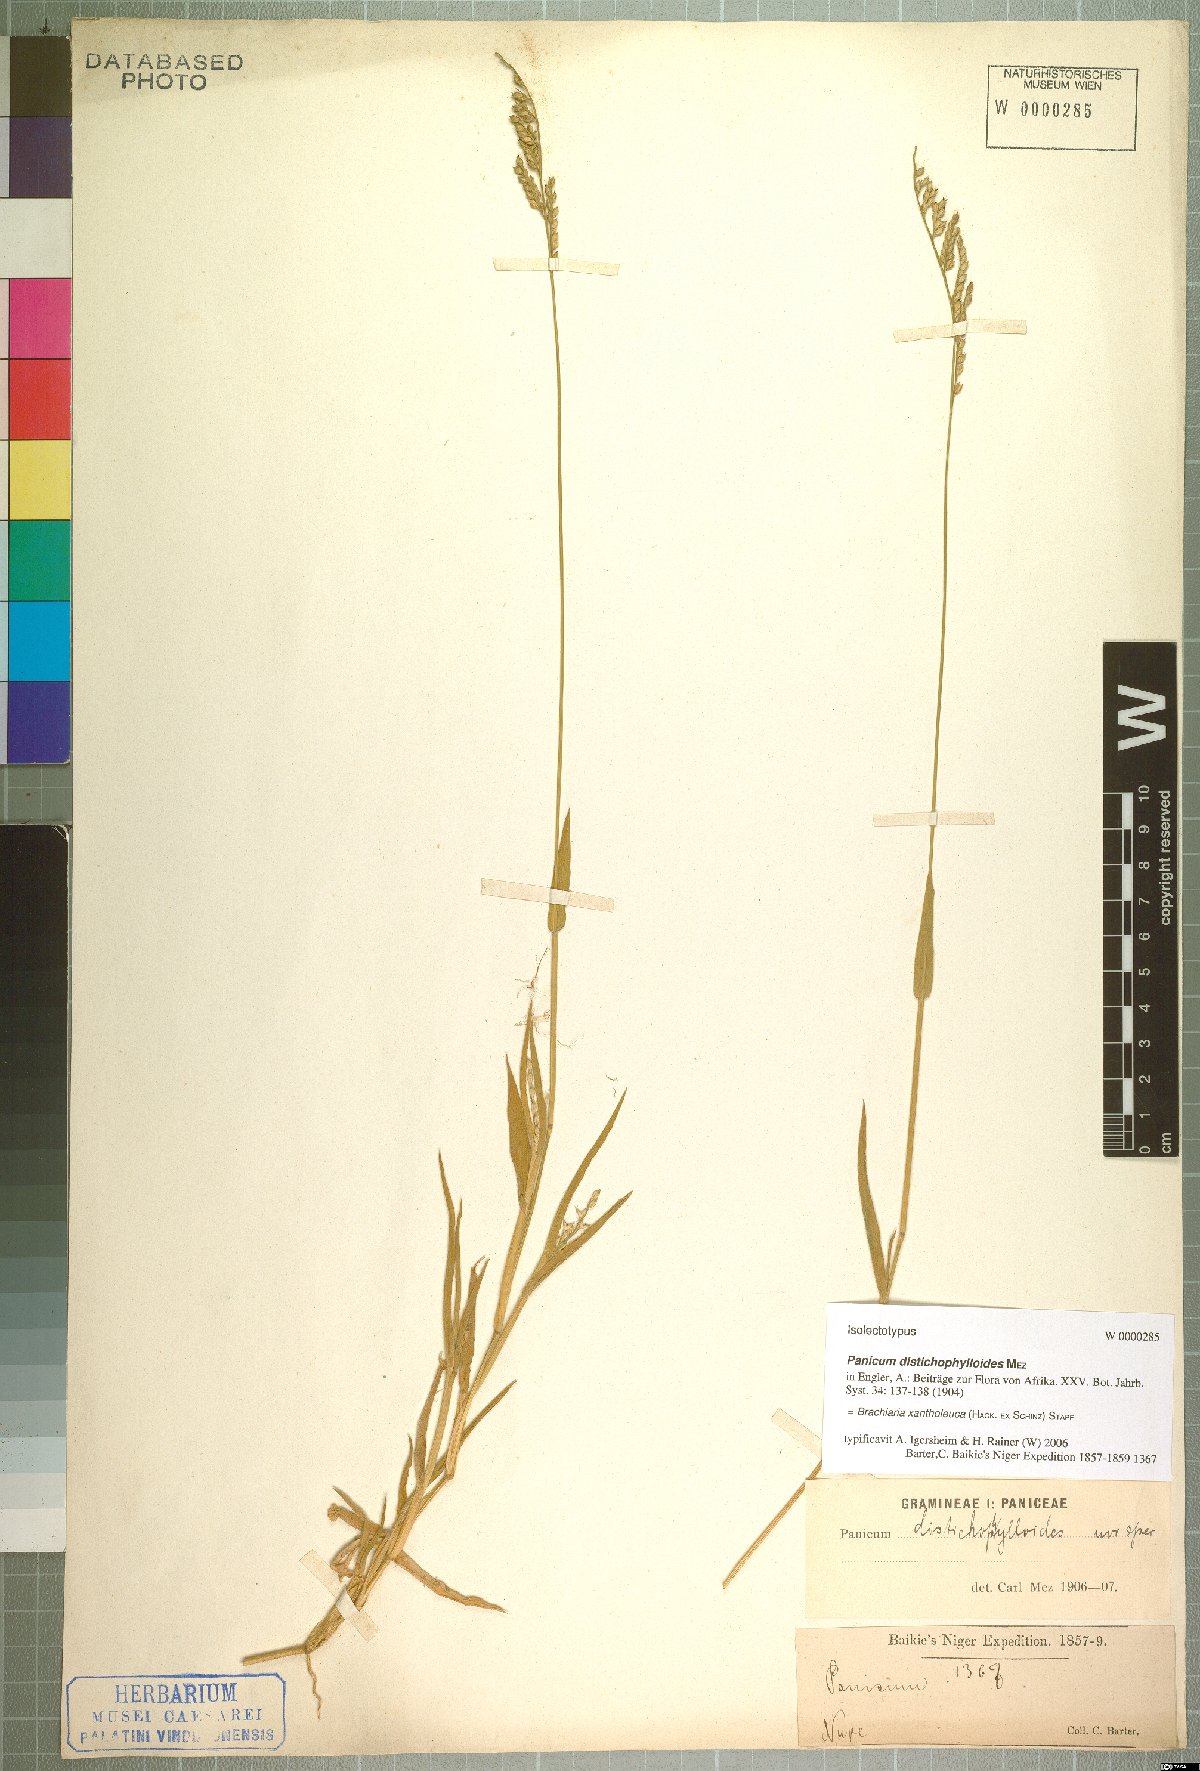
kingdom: Plantae
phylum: Tracheophyta
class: Liliopsida
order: Poales
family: Poaceae
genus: Urochloa
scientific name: Urochloa xantholeuca
